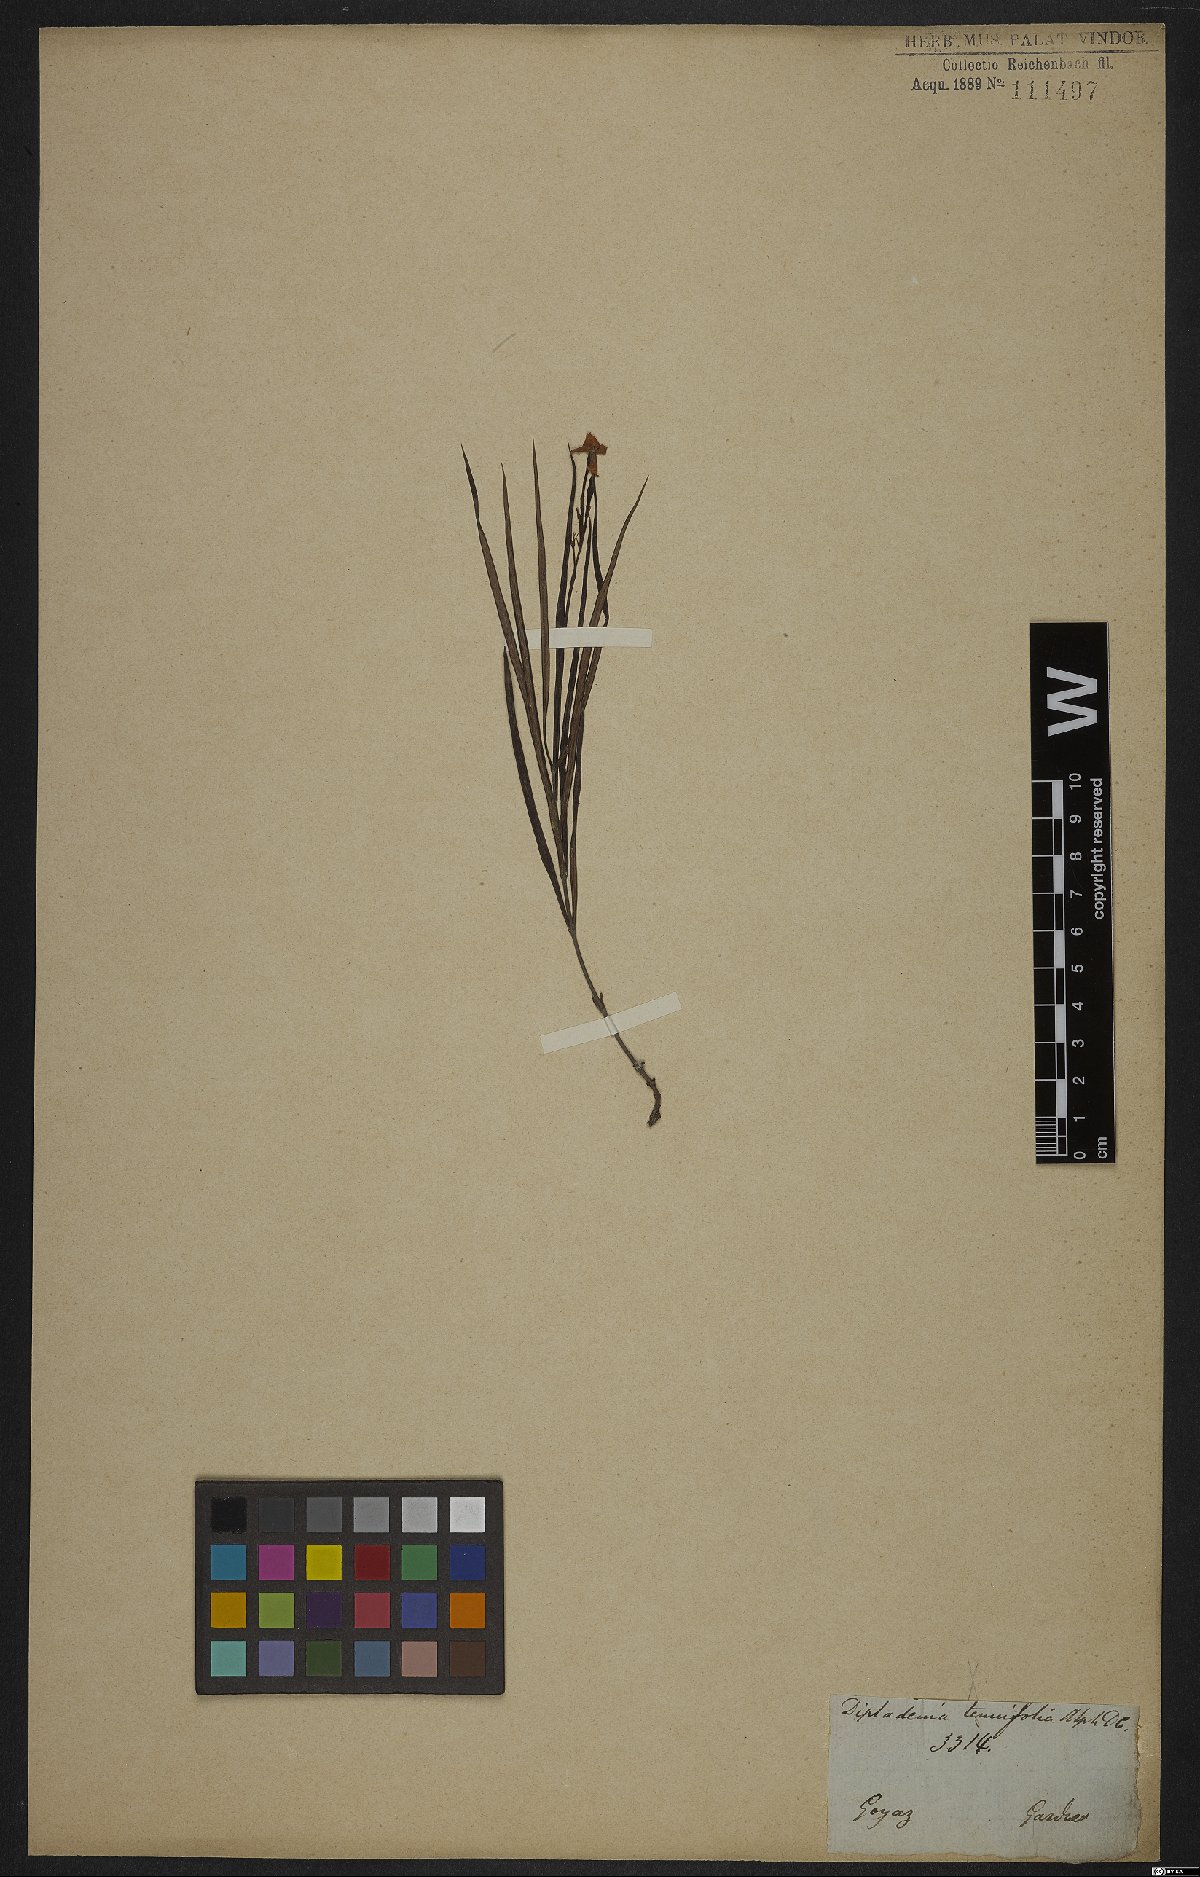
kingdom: Plantae
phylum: Tracheophyta
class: Magnoliopsida
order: Gentianales
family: Apocynaceae
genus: Mandevilla
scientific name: Mandevilla tenuifolia
